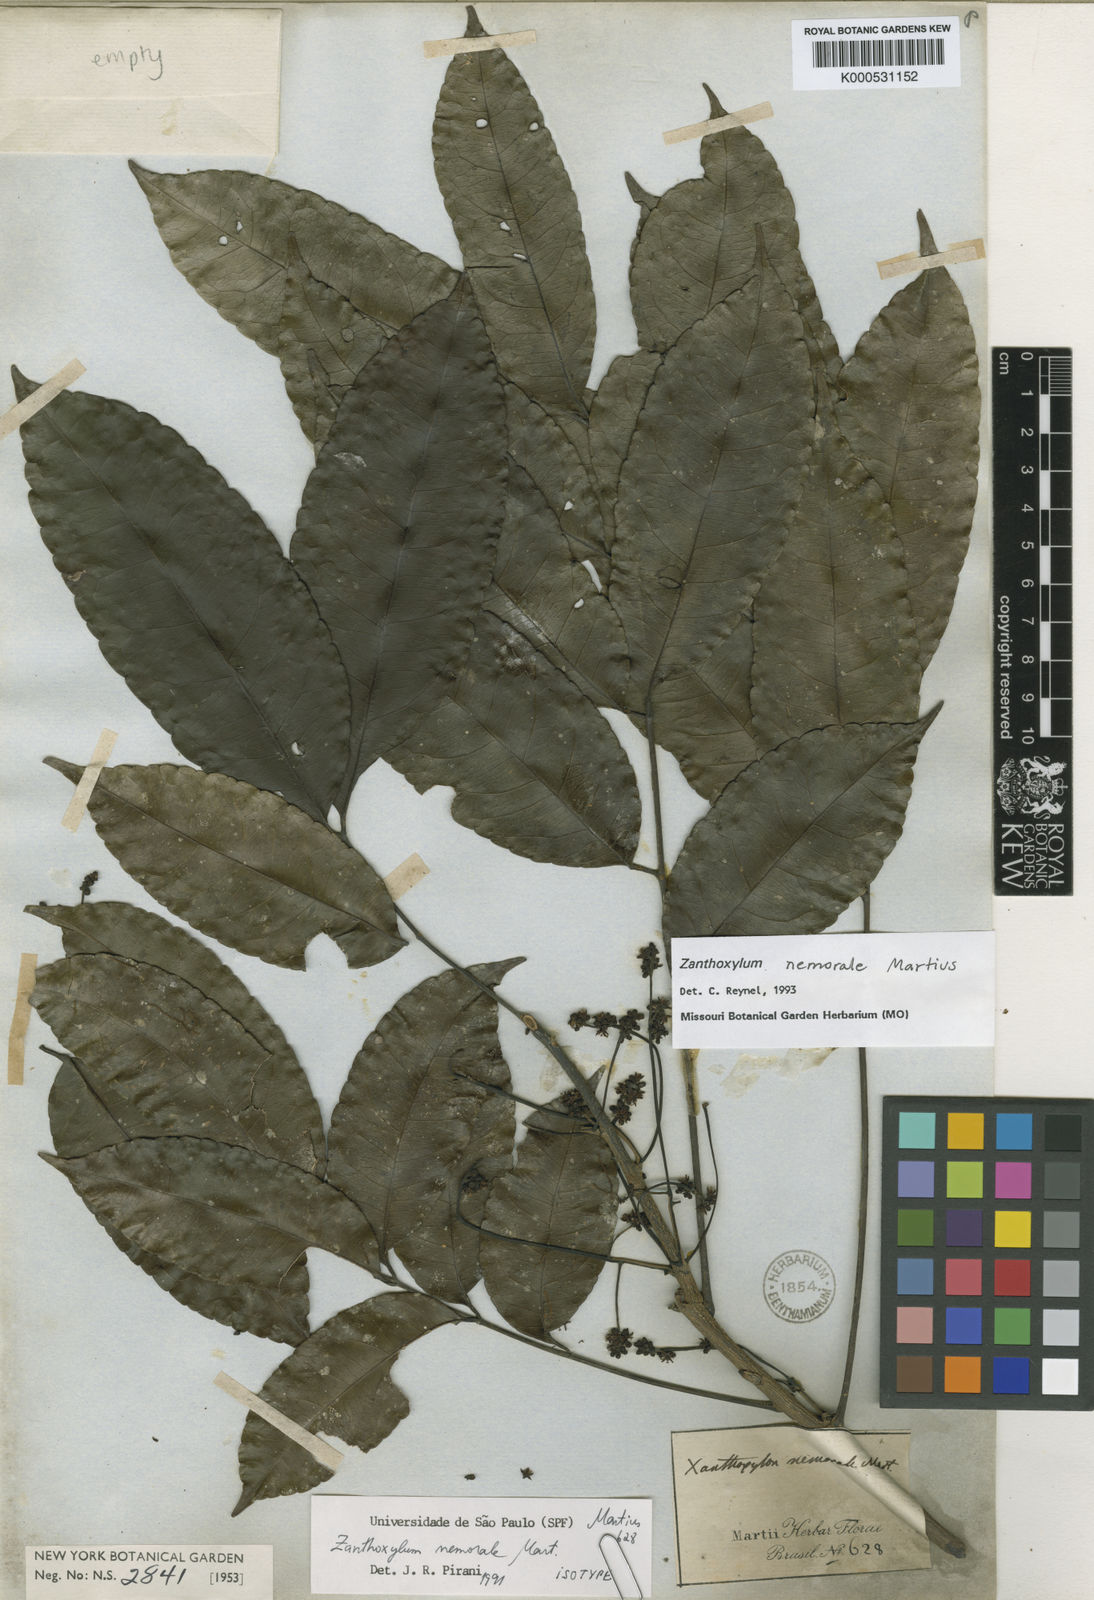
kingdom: Plantae
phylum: Tracheophyta
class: Magnoliopsida
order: Sapindales
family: Rutaceae
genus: Zanthoxylum
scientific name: Zanthoxylum nemorale
